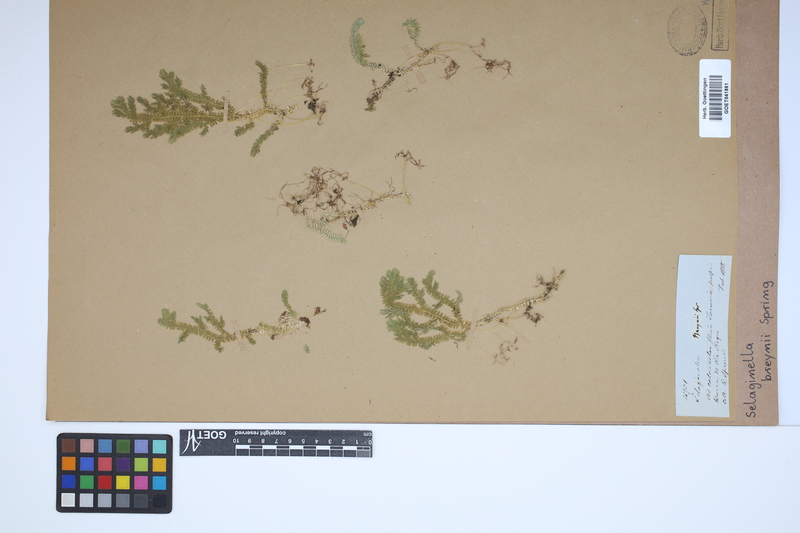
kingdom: Plantae
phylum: Tracheophyta
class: Lycopodiopsida
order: Selaginellales
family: Selaginellaceae
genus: Selaginella
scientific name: Selaginella breynii
